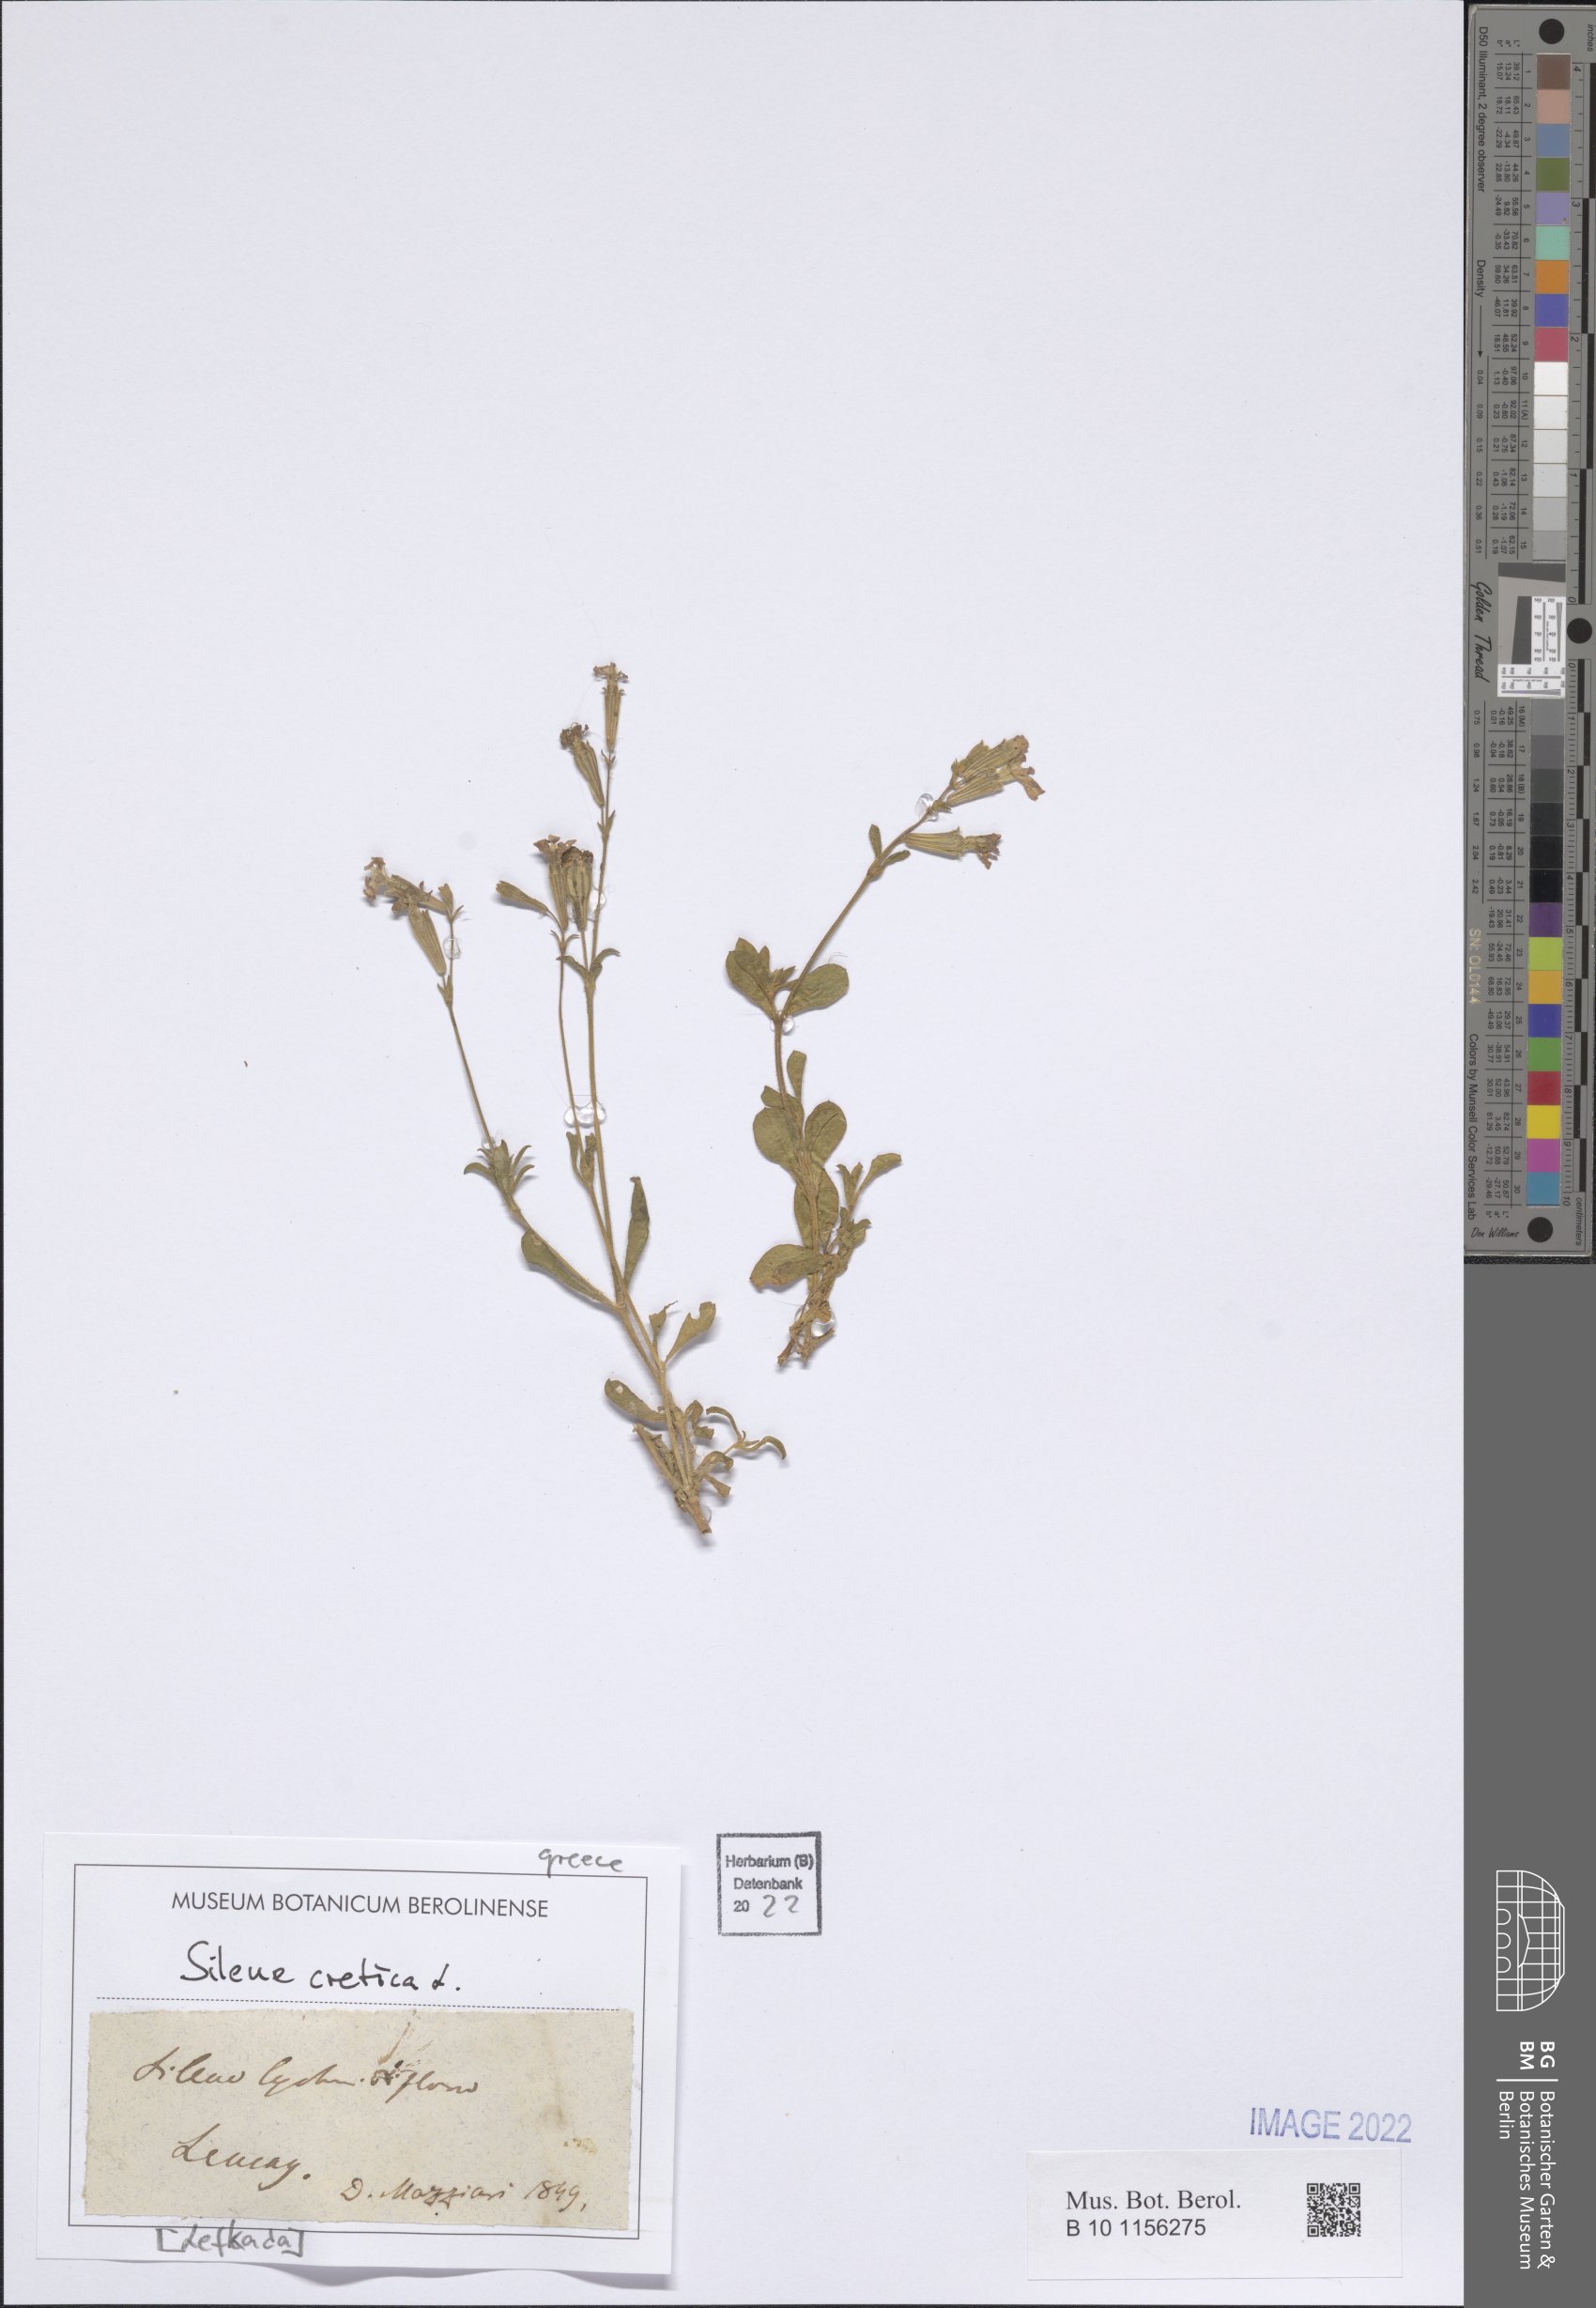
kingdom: Plantae
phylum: Tracheophyta
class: Magnoliopsida
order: Caryophyllales
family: Caryophyllaceae
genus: Silene
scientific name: Silene cretica
